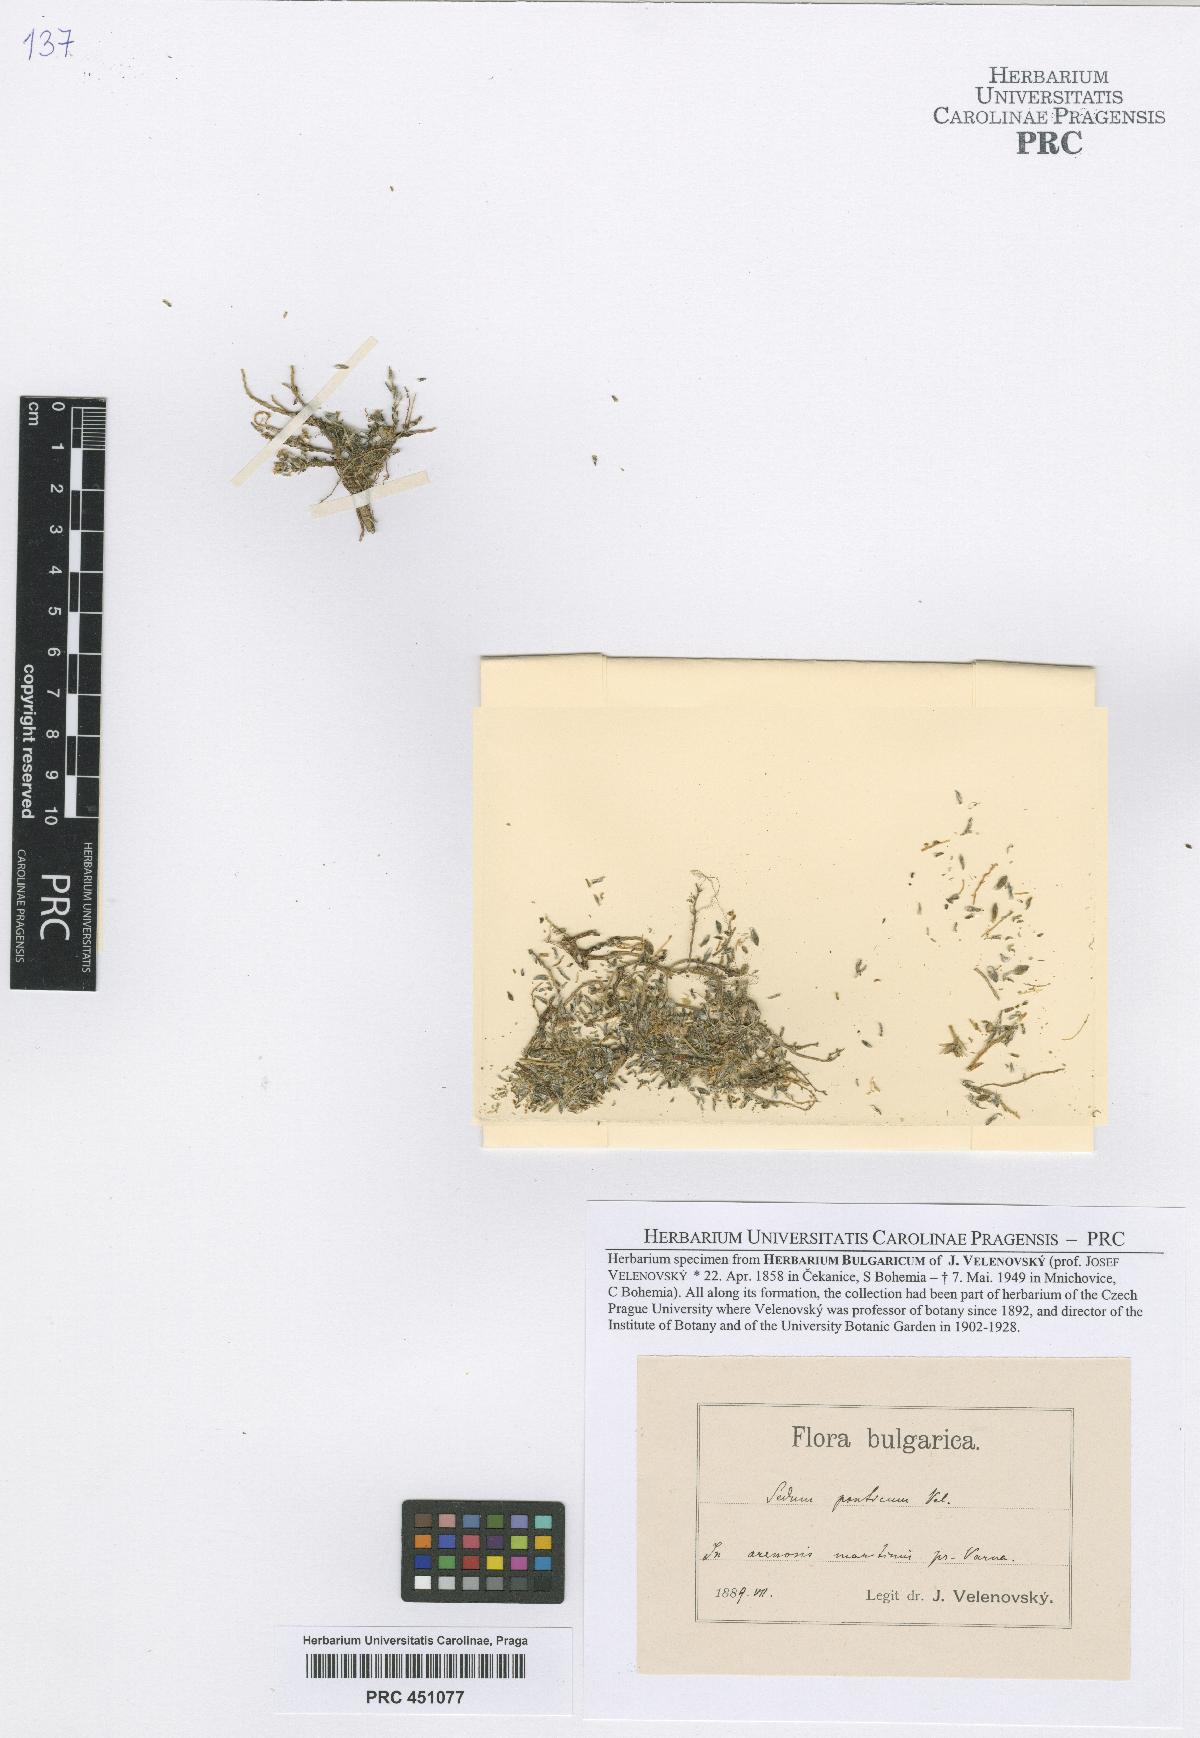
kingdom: Plantae
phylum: Tracheophyta
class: Magnoliopsida
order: Saxifragales
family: Crassulaceae
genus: Sedum
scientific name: Sedum urvillei
